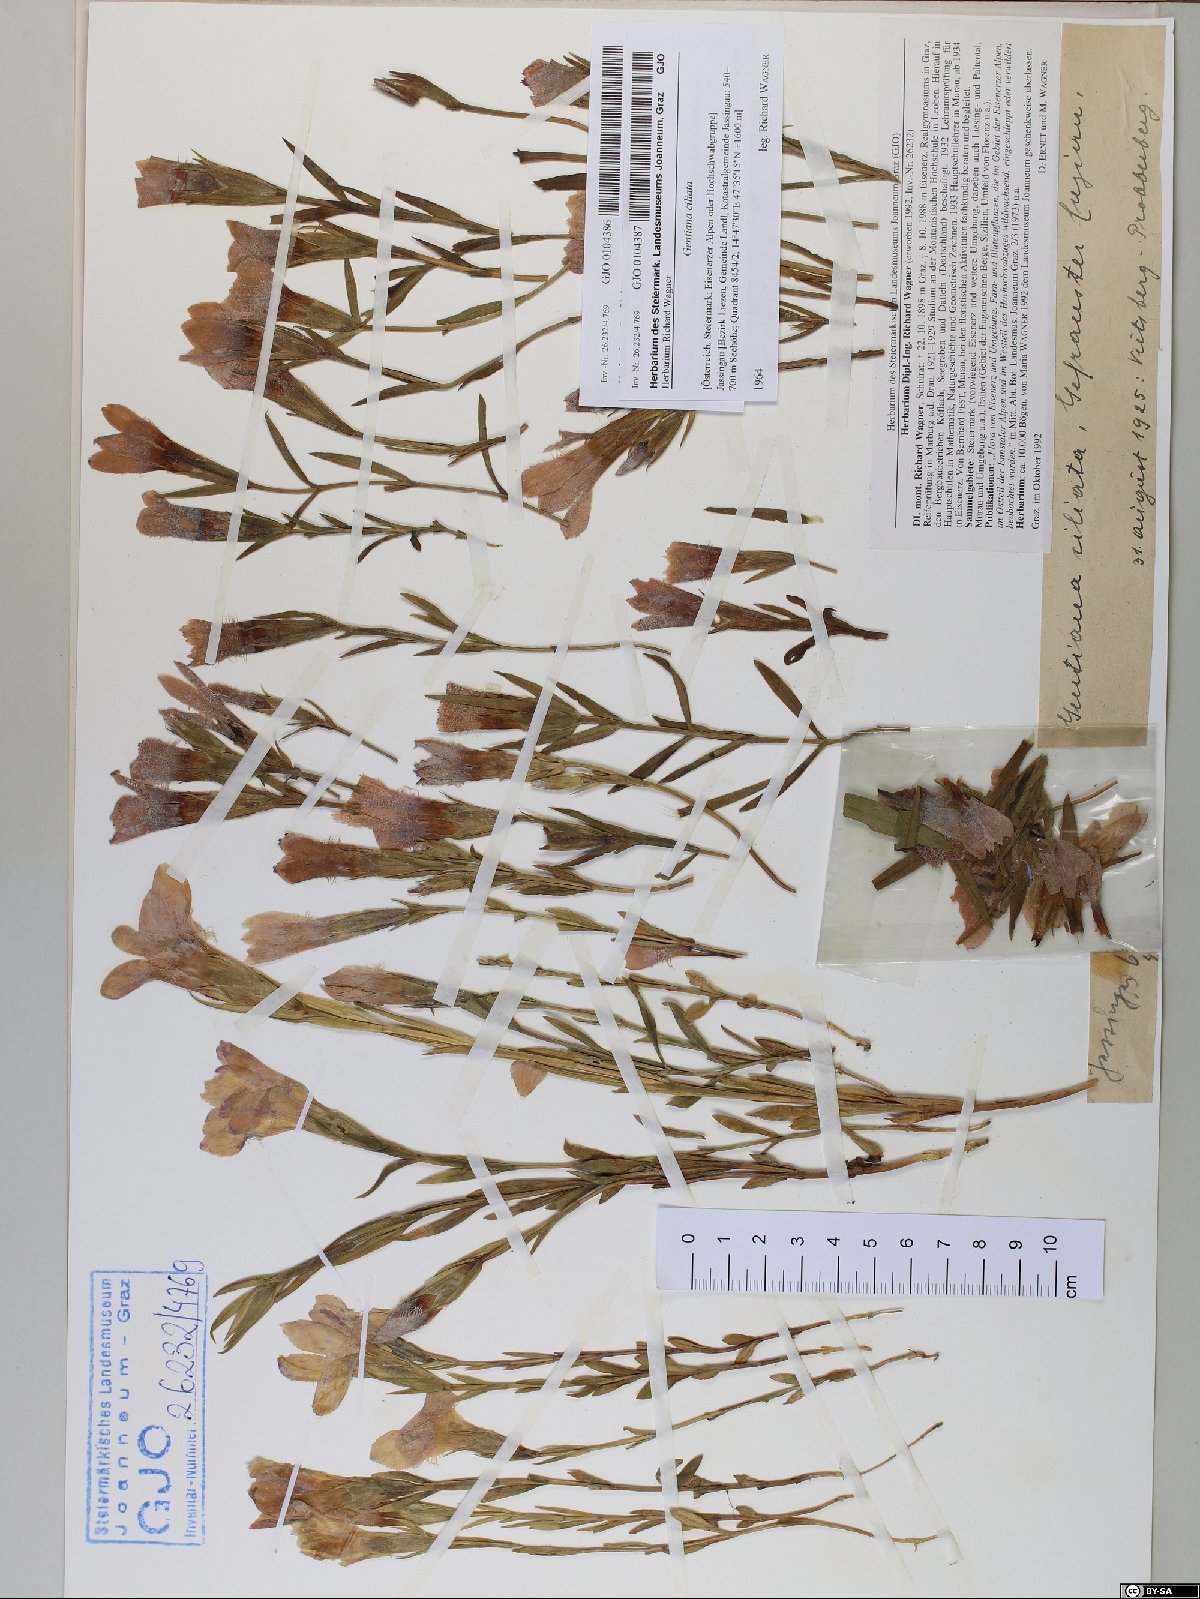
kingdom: Plantae
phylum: Tracheophyta
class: Magnoliopsida
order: Gentianales
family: Gentianaceae
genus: Gentianopsis
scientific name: Gentianopsis ciliata
